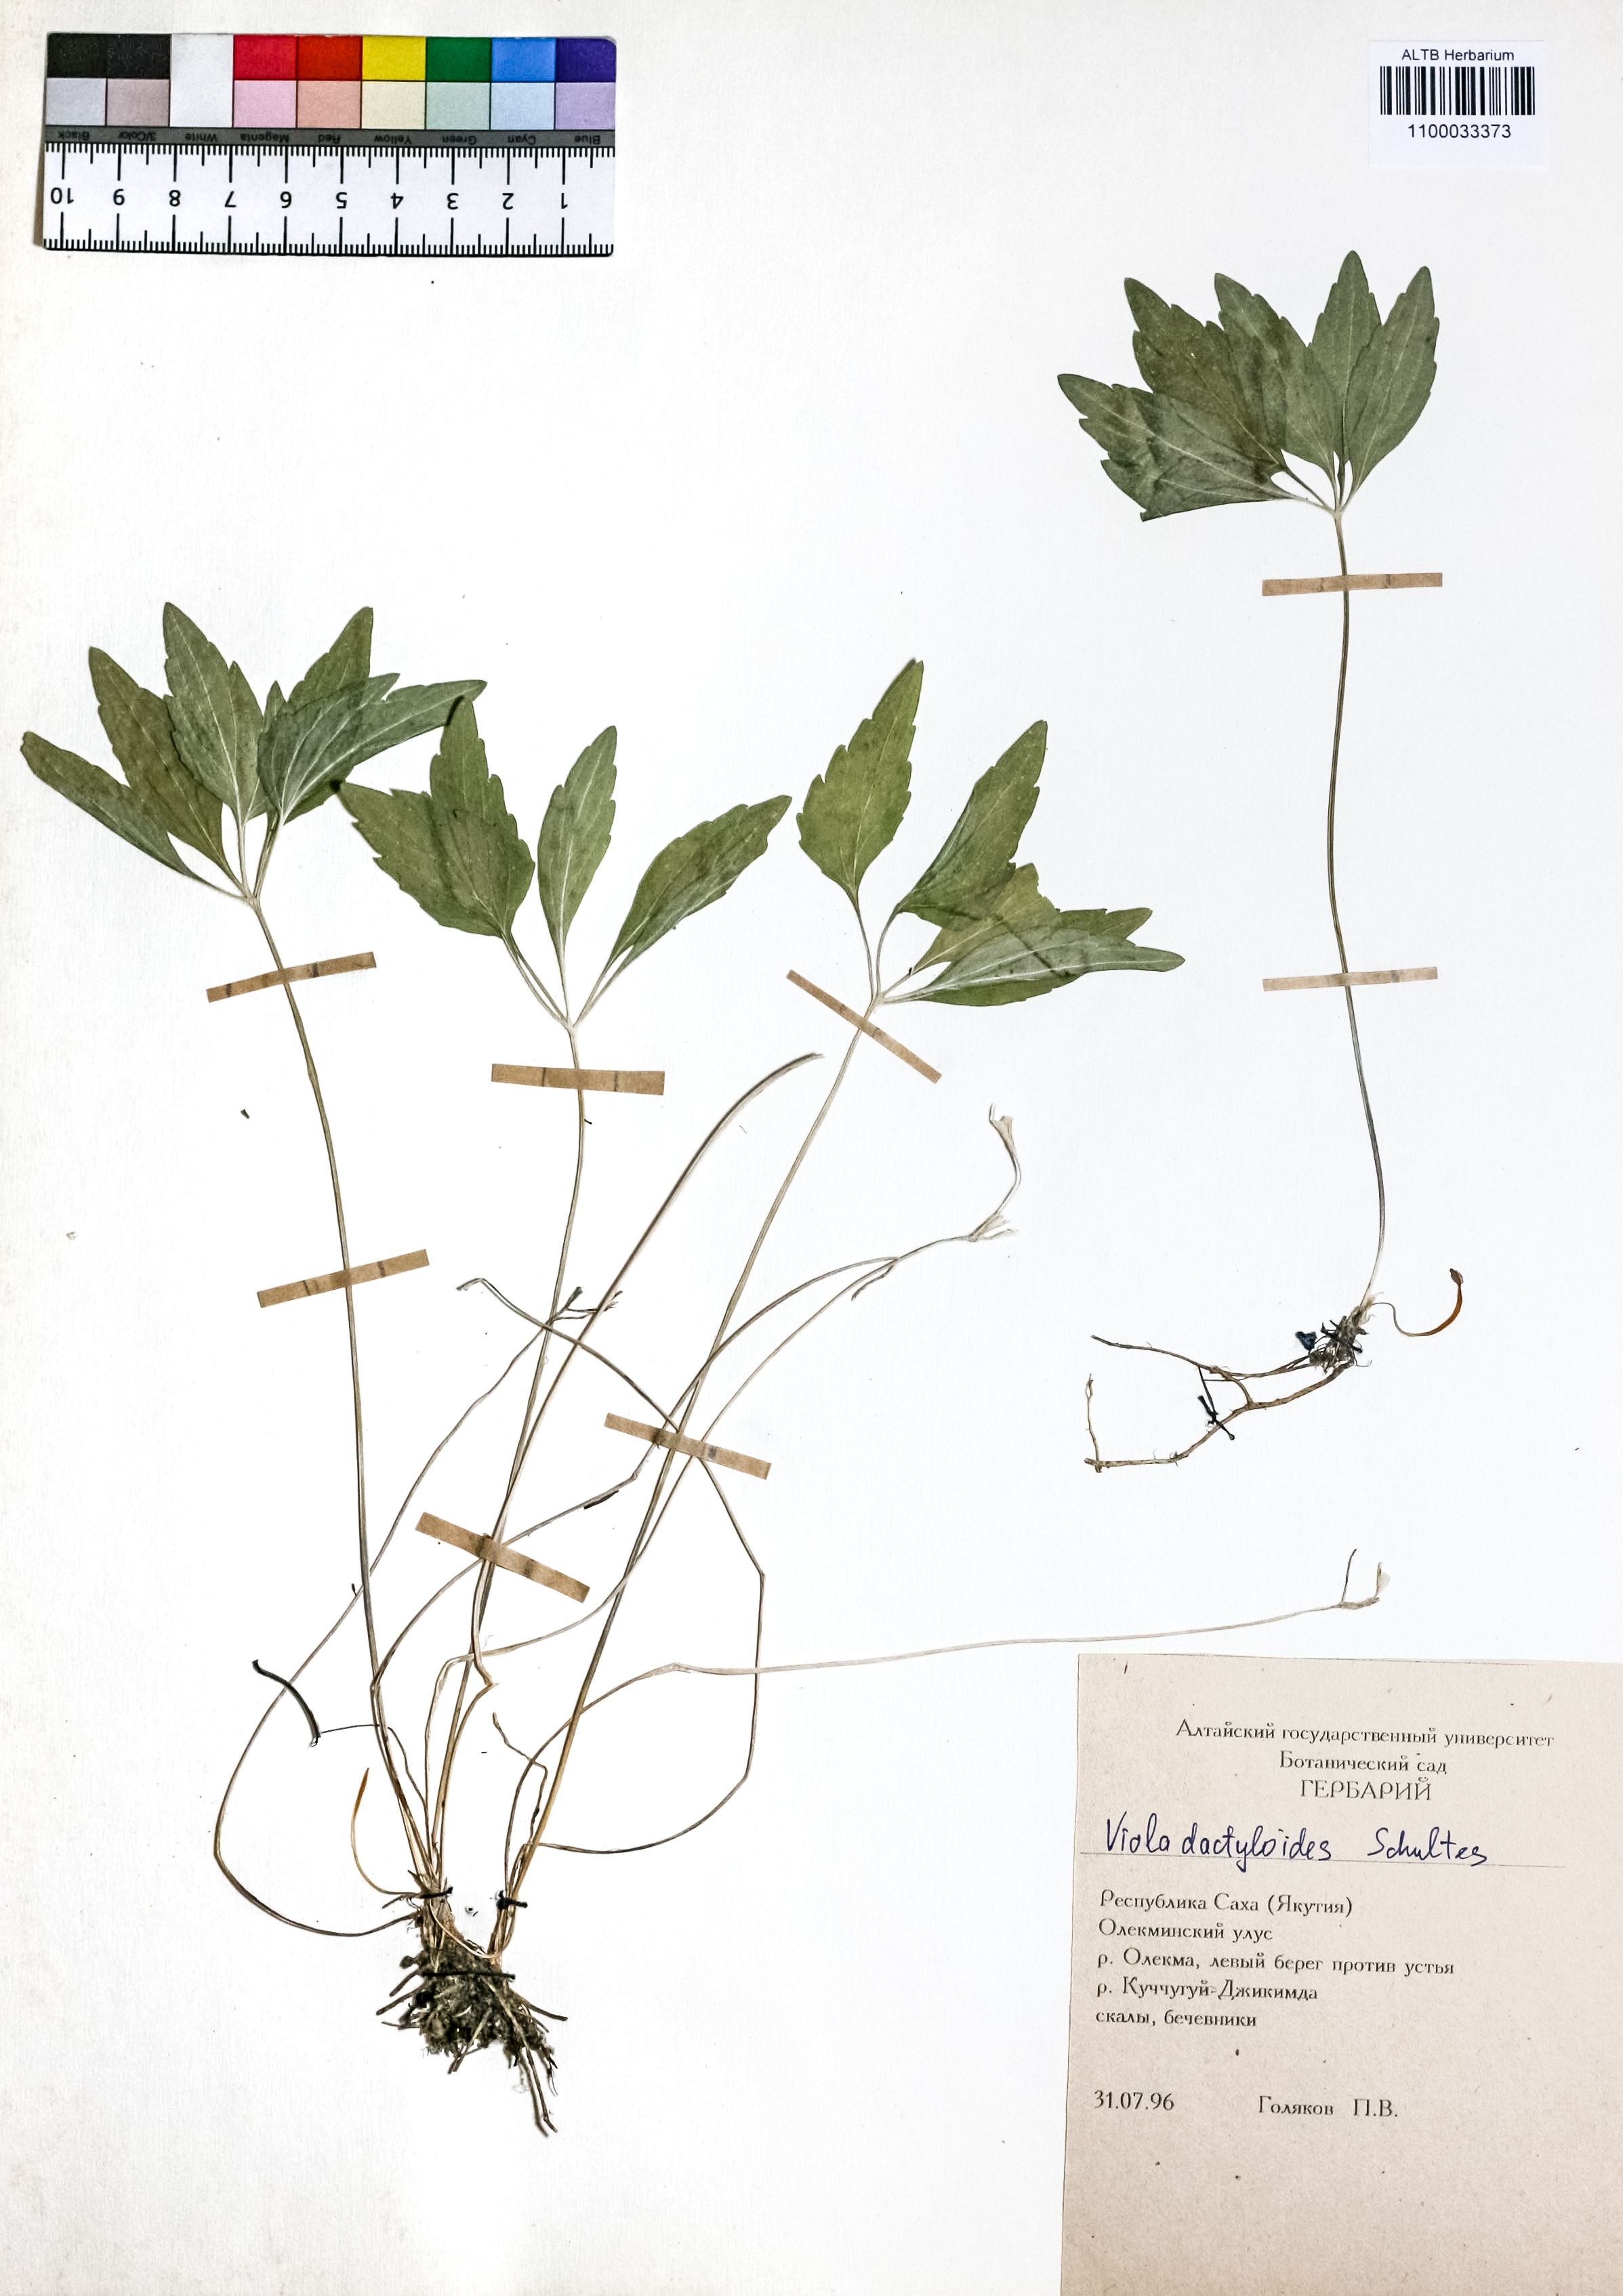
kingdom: Plantae
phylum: Tracheophyta
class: Liliopsida
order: Poales
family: Poaceae
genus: Calamagrostis
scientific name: Calamagrostis epigejos
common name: Wood small-reed
